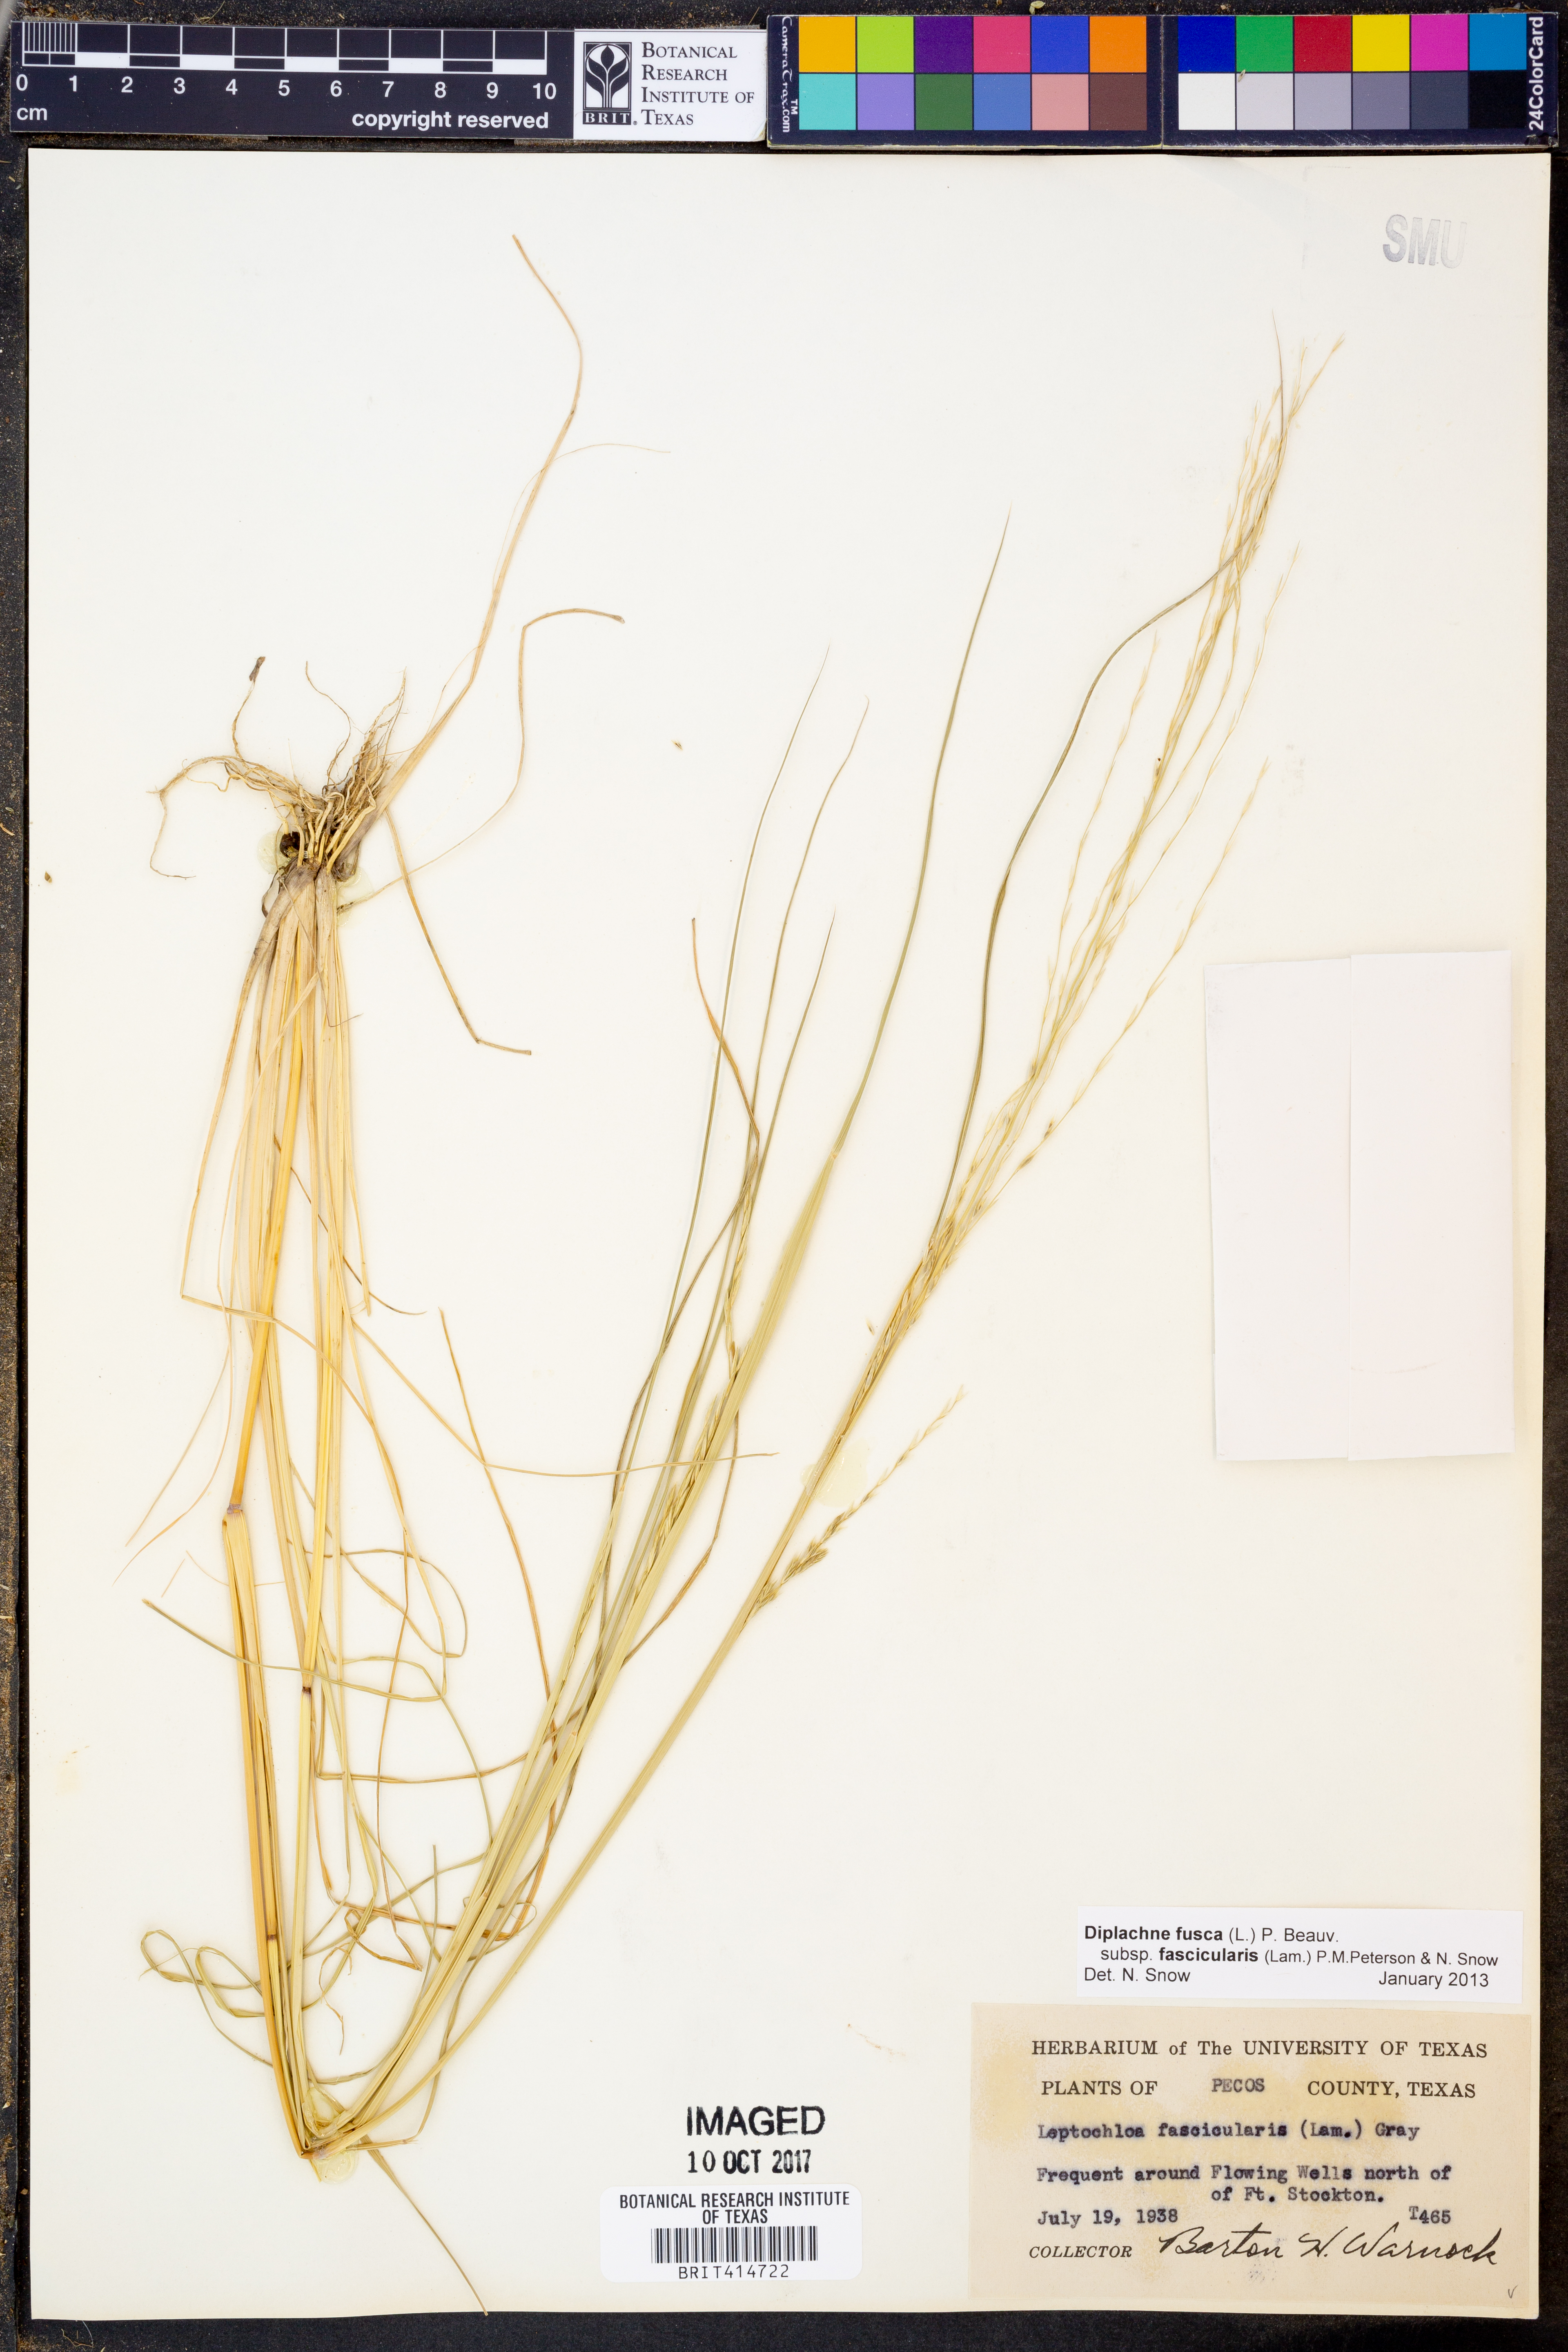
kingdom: Plantae
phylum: Tracheophyta
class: Liliopsida
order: Poales
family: Poaceae
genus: Diplachne
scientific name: Diplachne fusca
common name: Brown beetle grass
